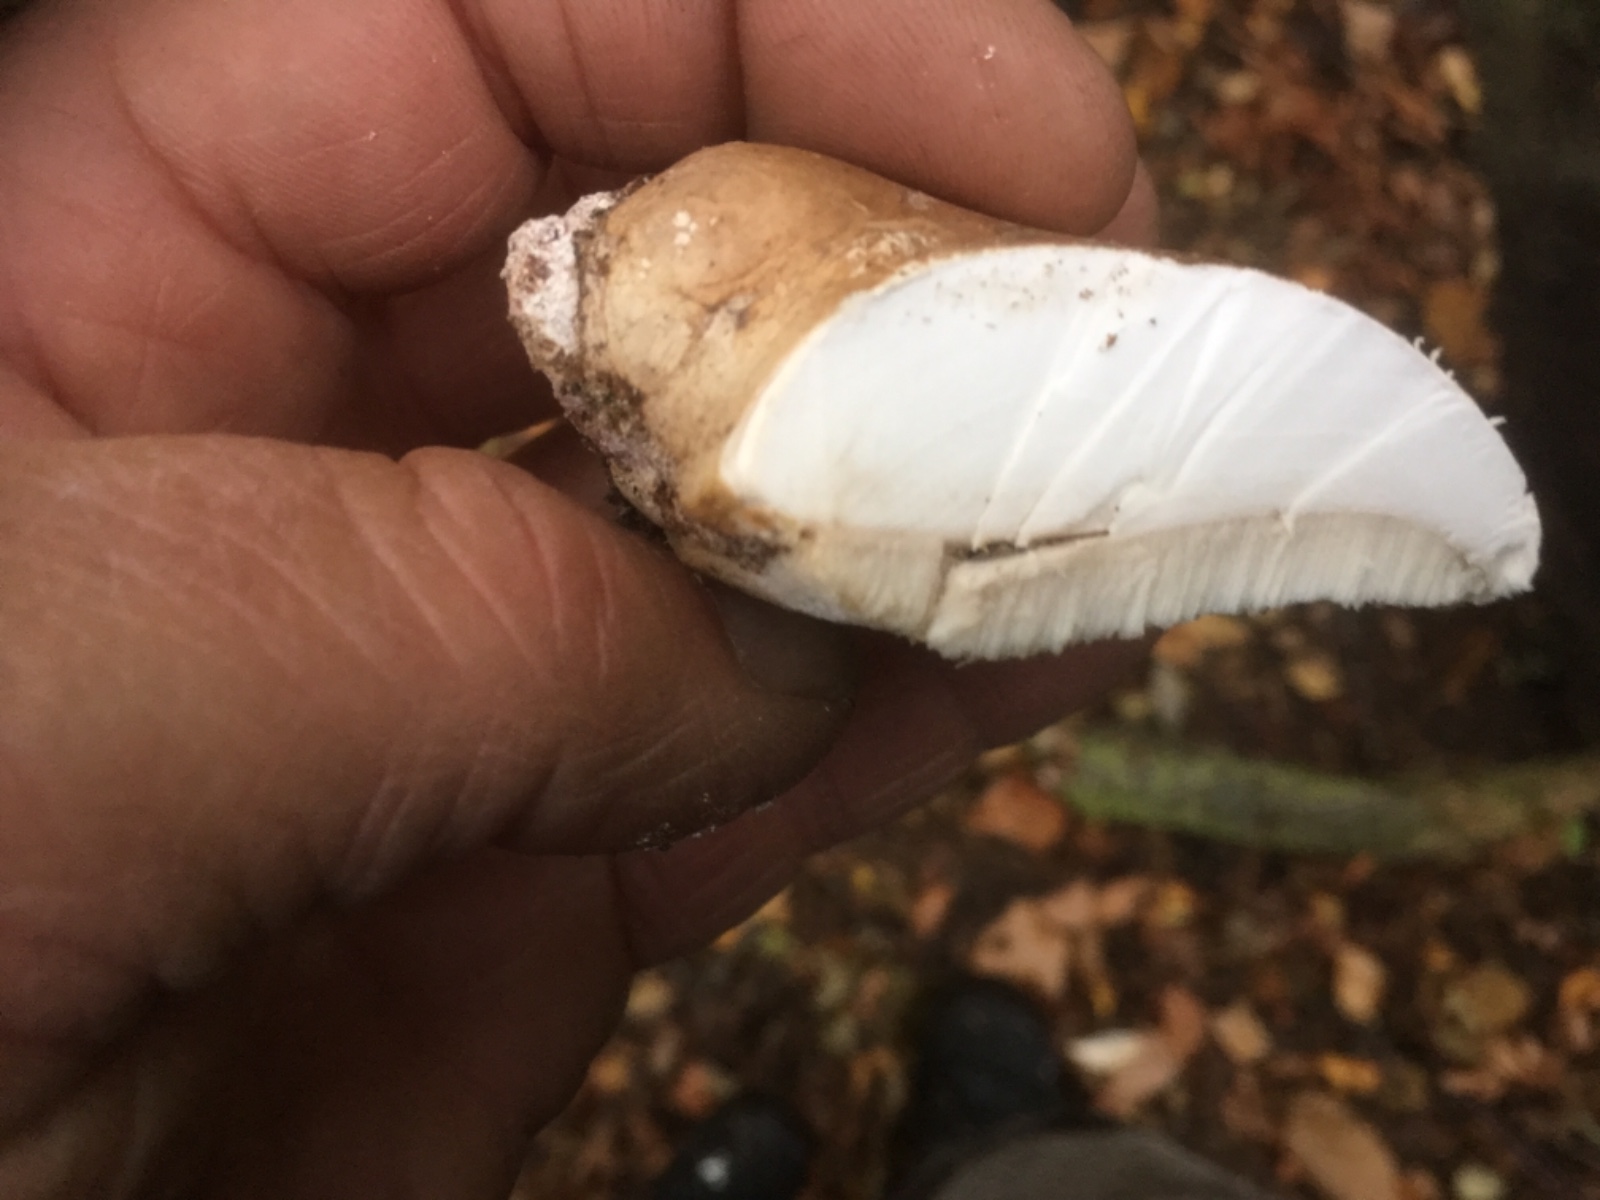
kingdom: Fungi
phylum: Basidiomycota
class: Agaricomycetes
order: Polyporales
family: Fomitopsidaceae
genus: Fomitopsis
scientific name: Fomitopsis betulina
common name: birkeporesvamp
